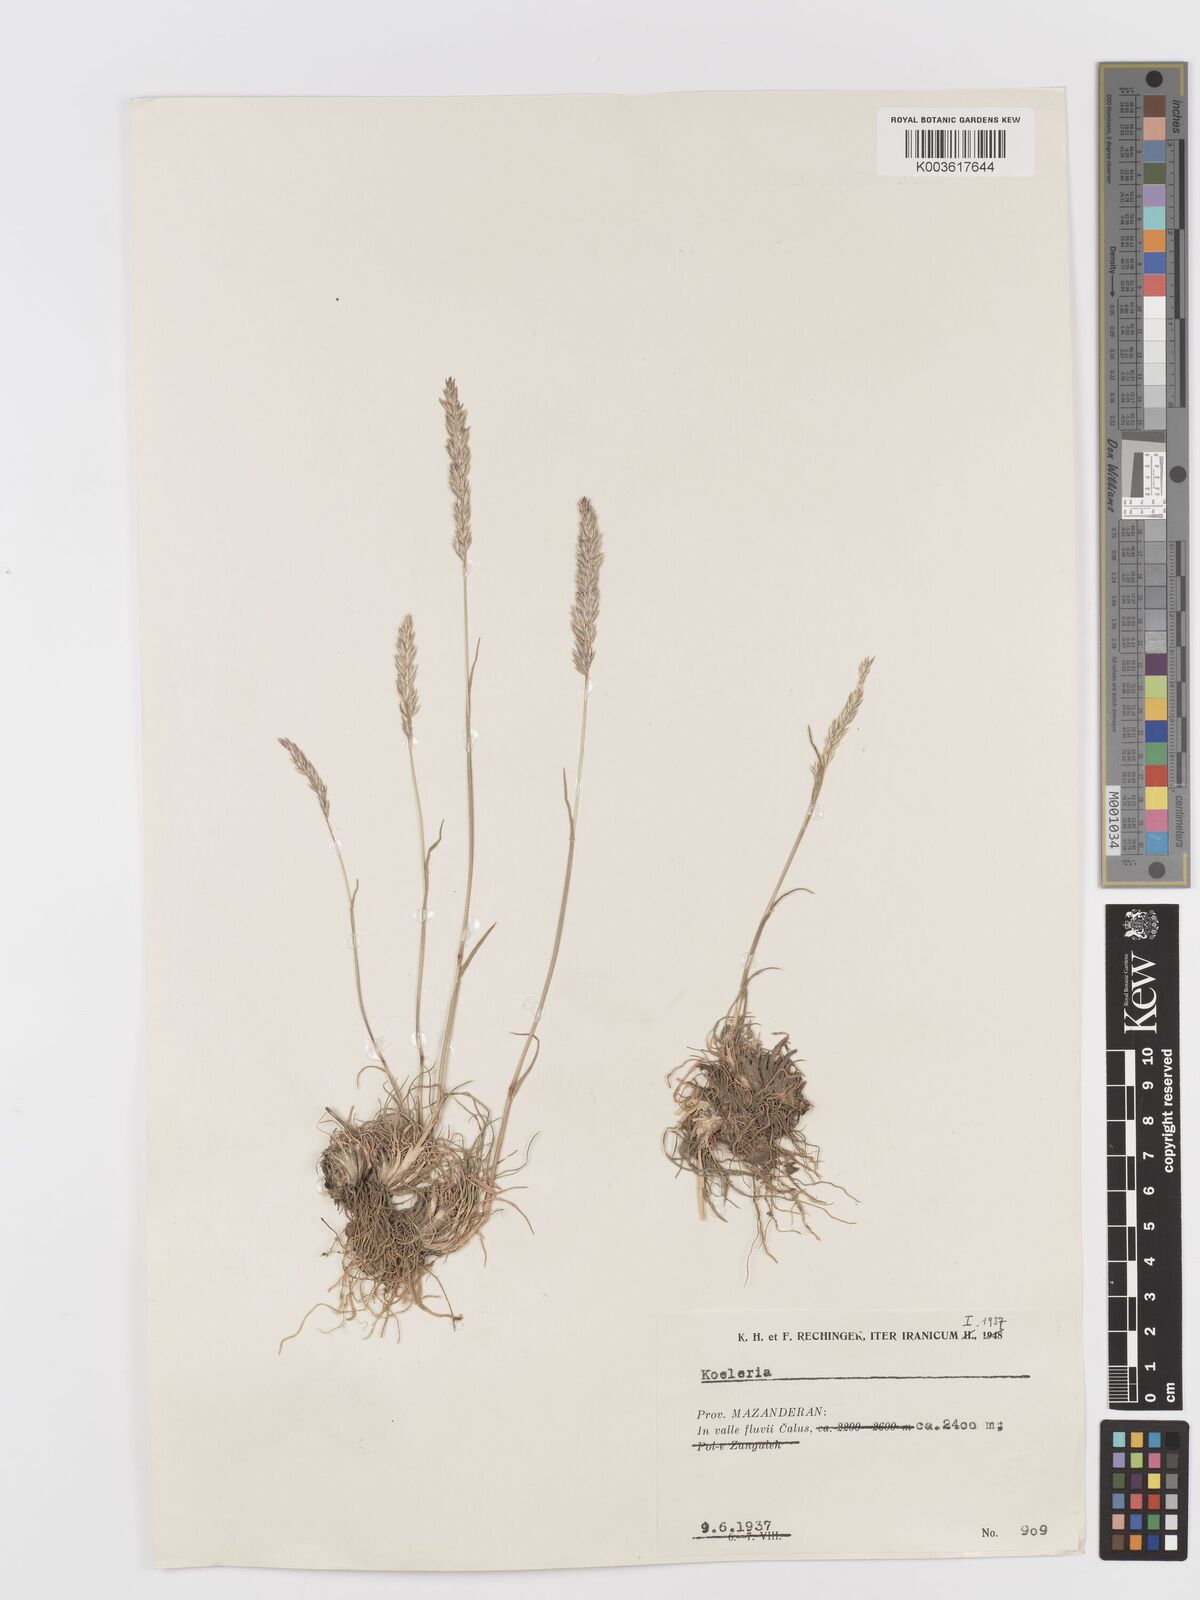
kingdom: Plantae
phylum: Tracheophyta
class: Liliopsida
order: Poales
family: Poaceae
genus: Koeleria
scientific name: Koeleria
